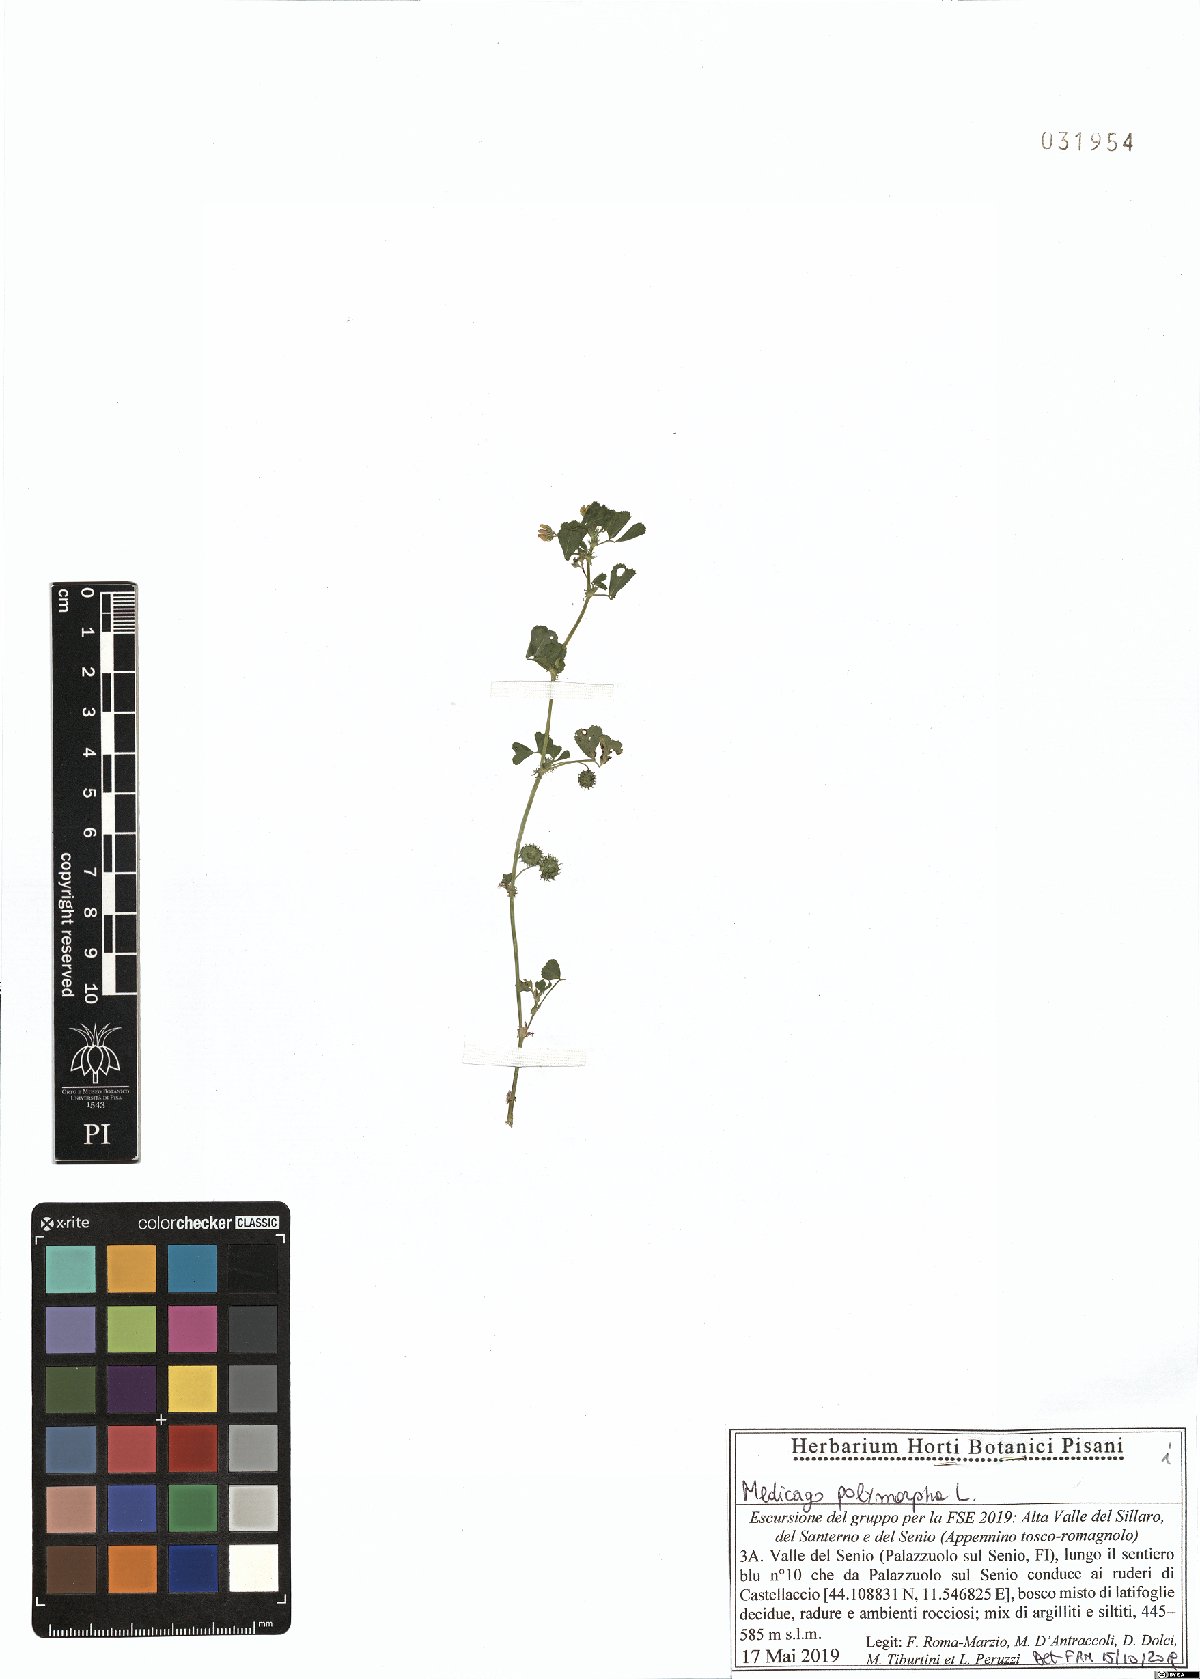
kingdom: Plantae
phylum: Tracheophyta
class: Magnoliopsida
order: Fabales
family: Fabaceae
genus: Medicago
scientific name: Medicago polymorpha
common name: Burclover
